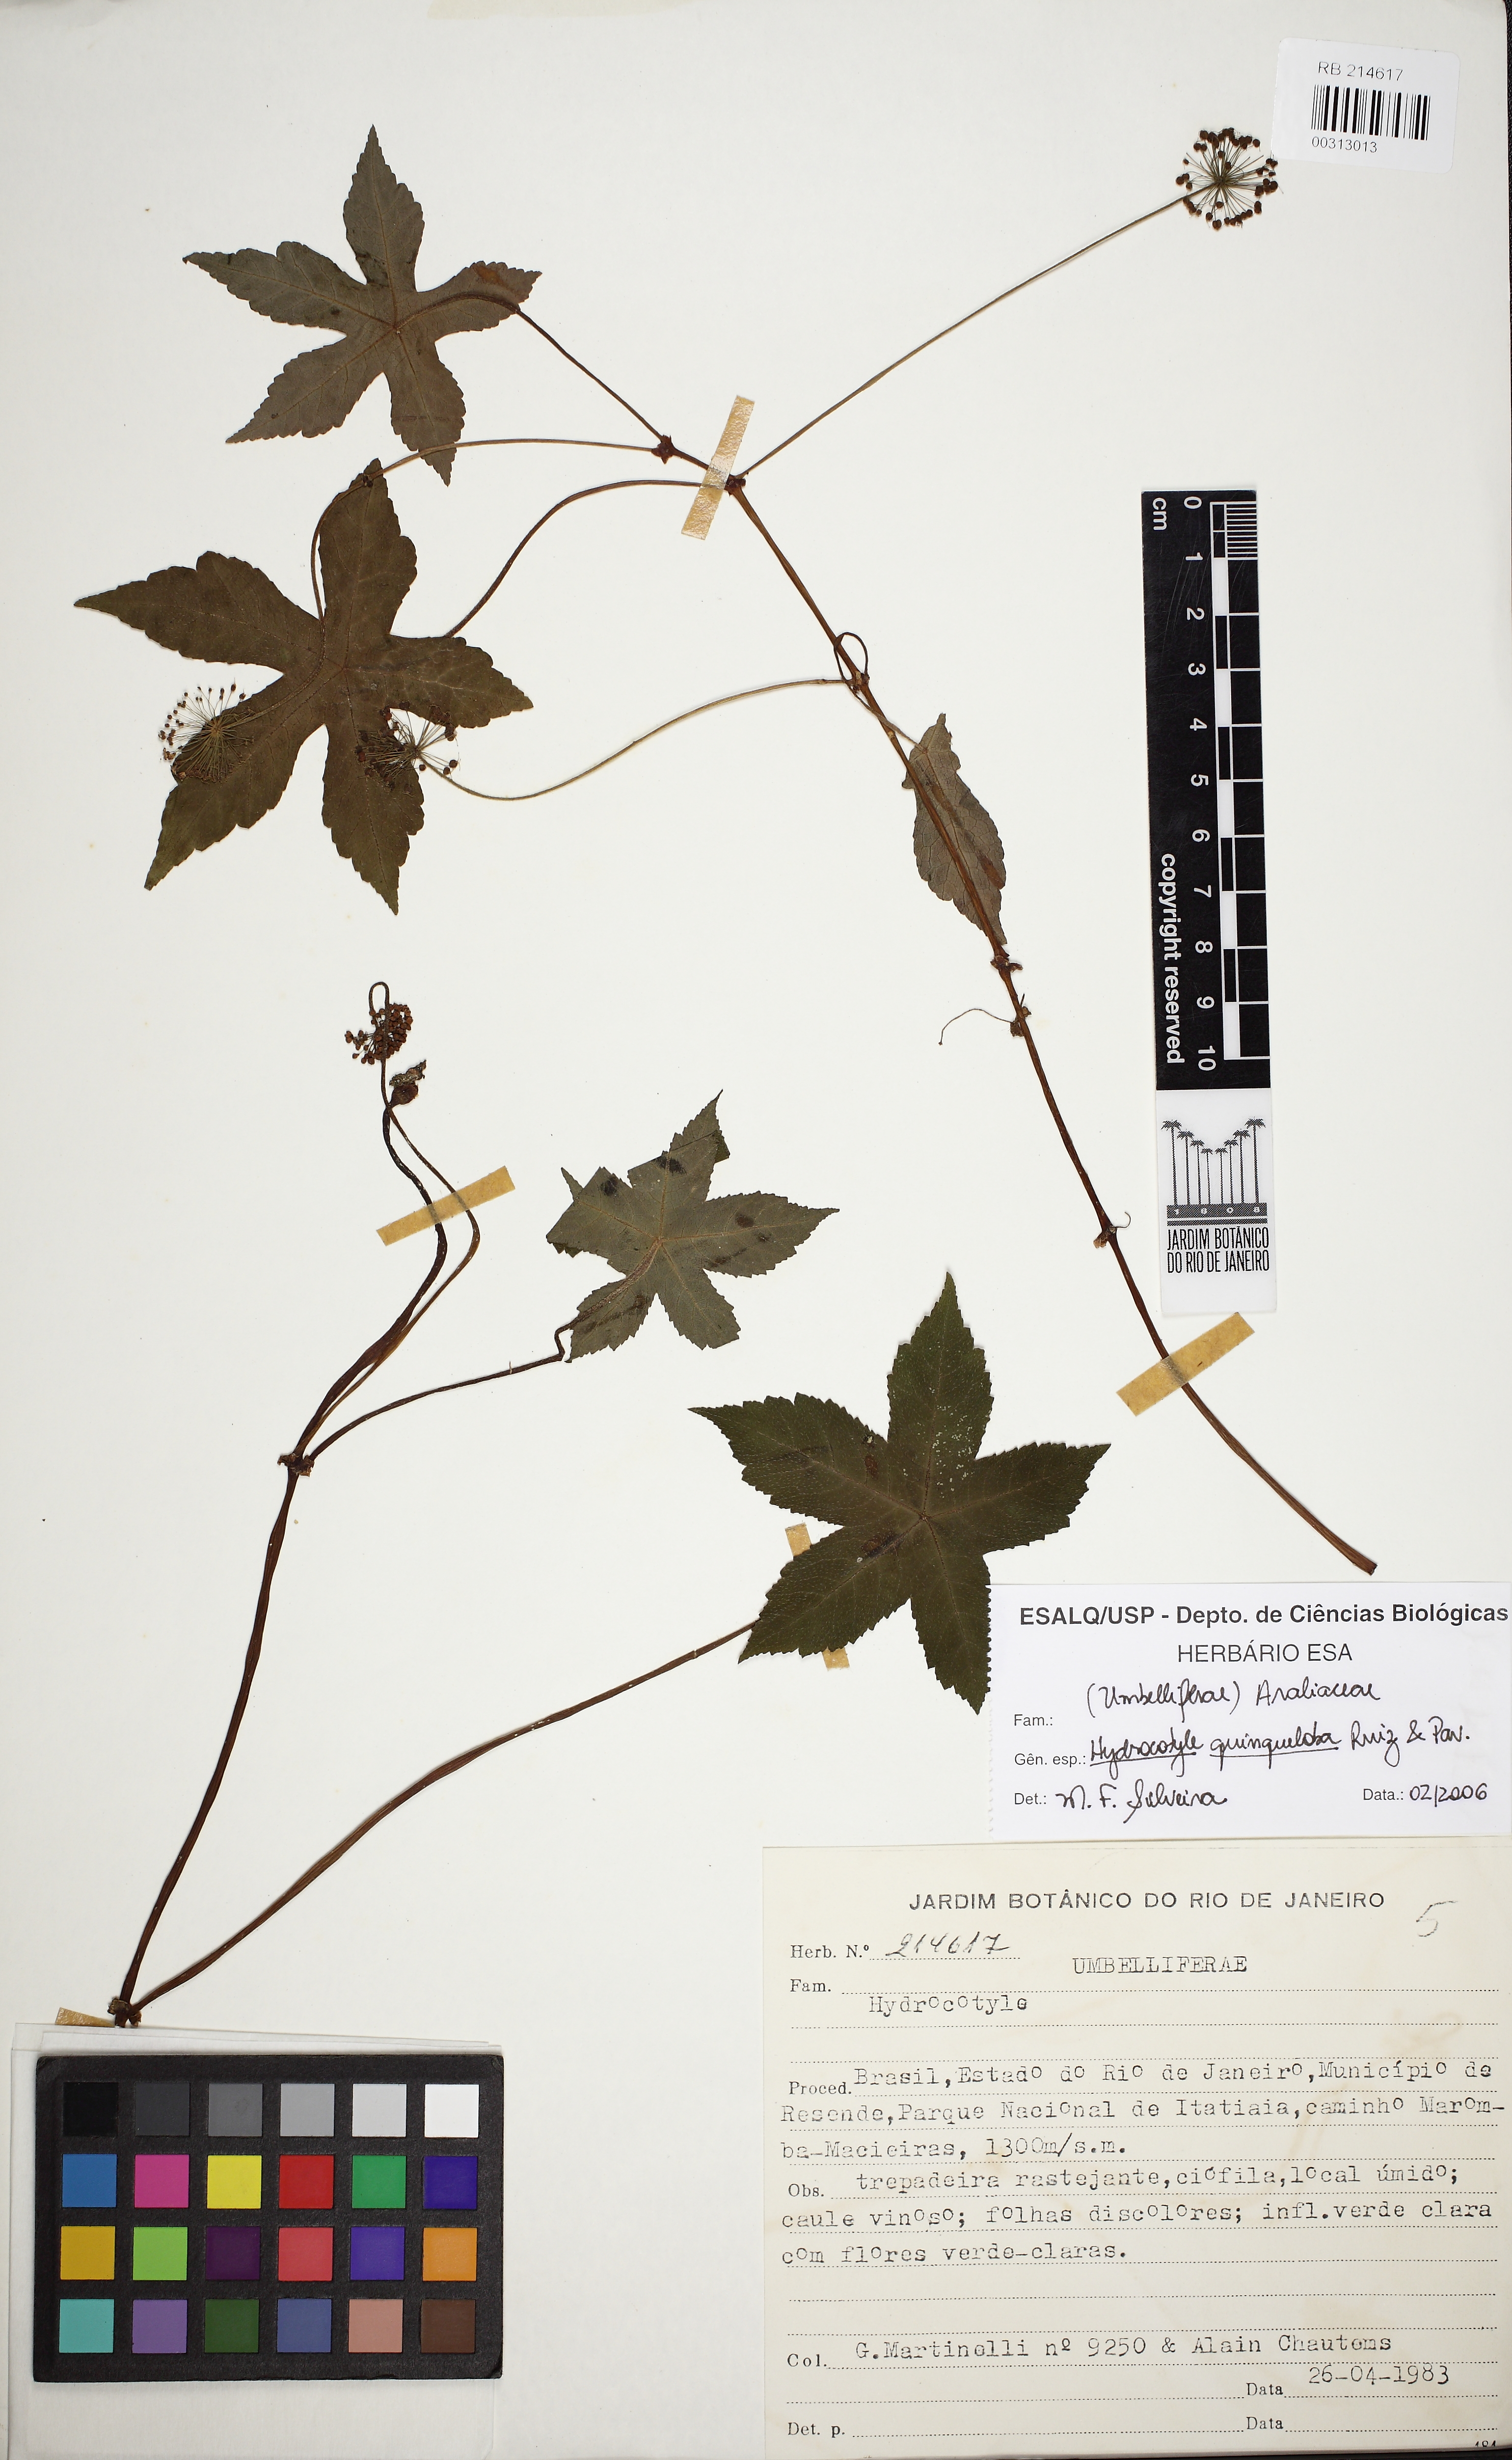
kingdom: Plantae
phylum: Tracheophyta
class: Magnoliopsida
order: Apiales
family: Araliaceae
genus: Hydrocotyle
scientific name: Hydrocotyle quinqueloba
